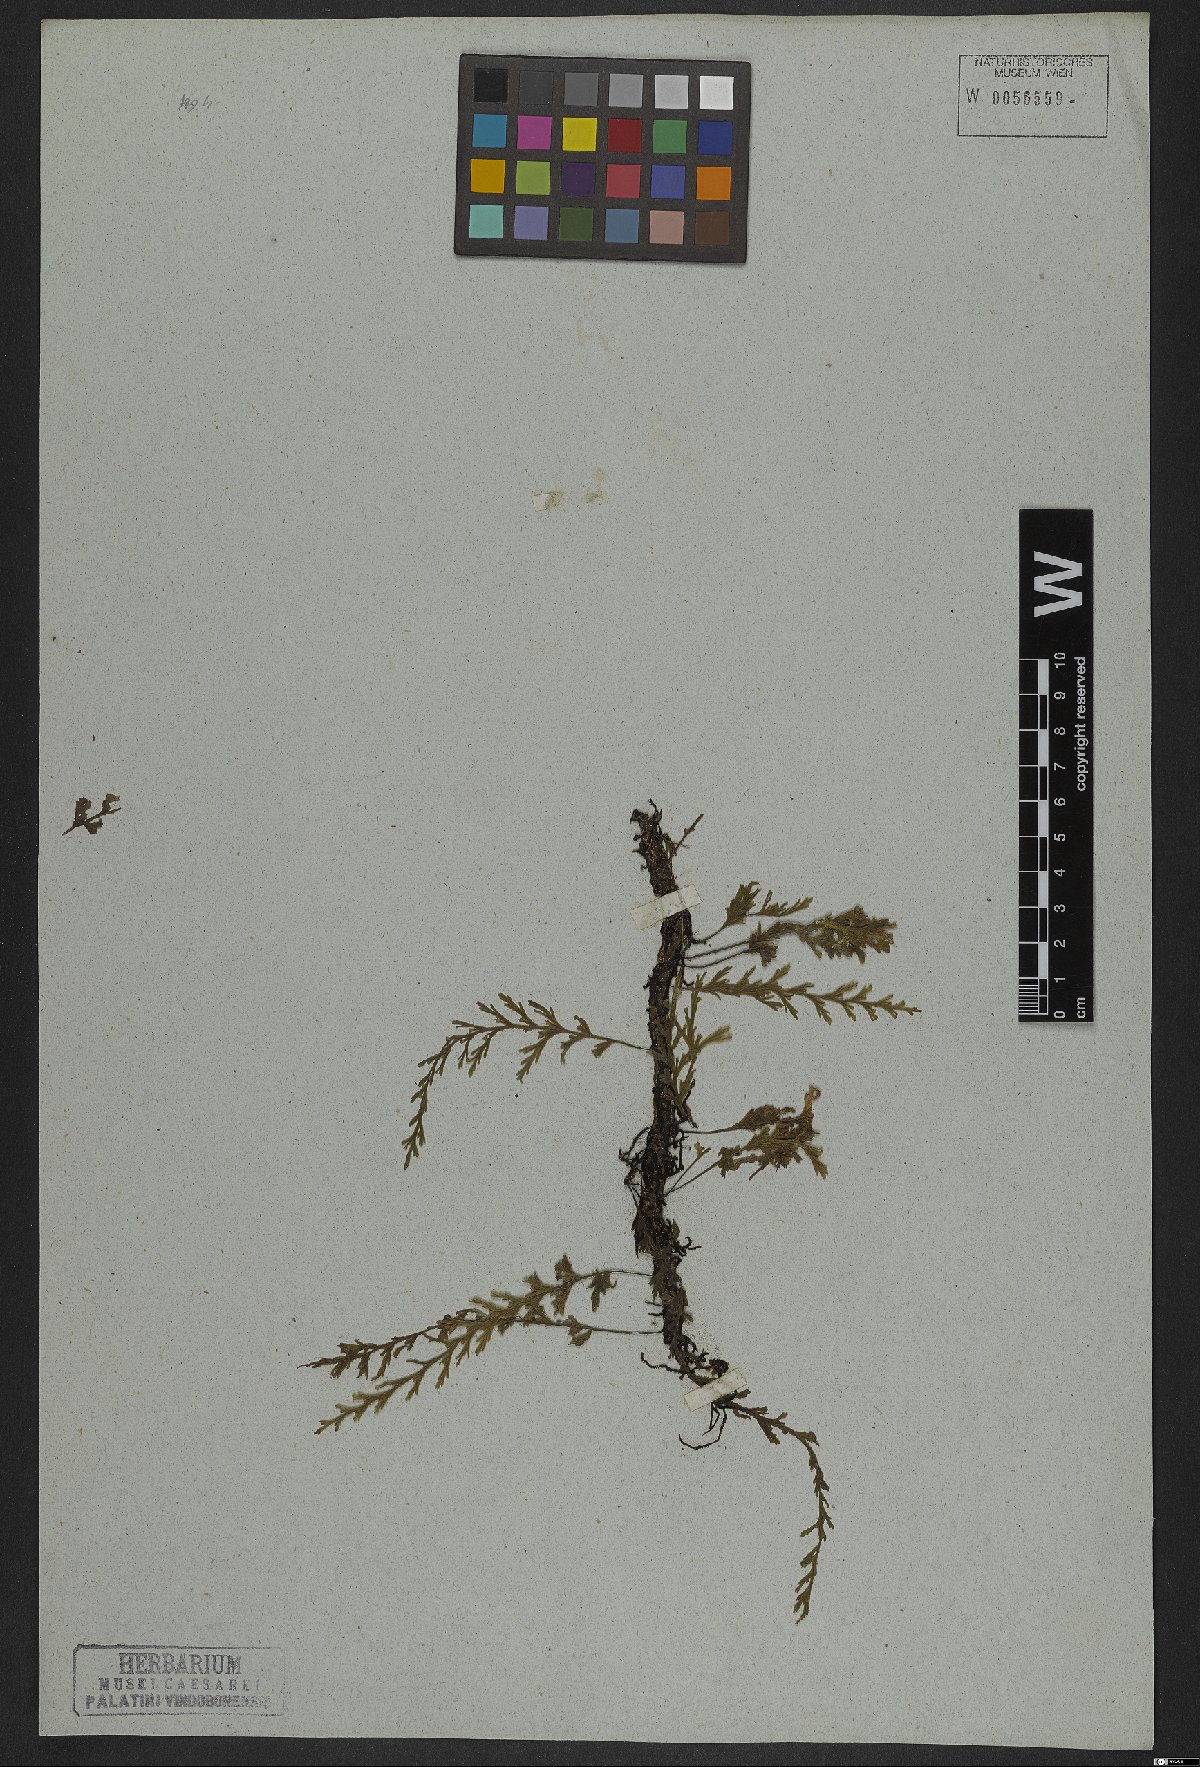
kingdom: Plantae
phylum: Tracheophyta
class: Polypodiopsida
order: Hymenophyllales
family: Hymenophyllaceae
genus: Trichomanes
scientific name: Trichomanes pinnatum
